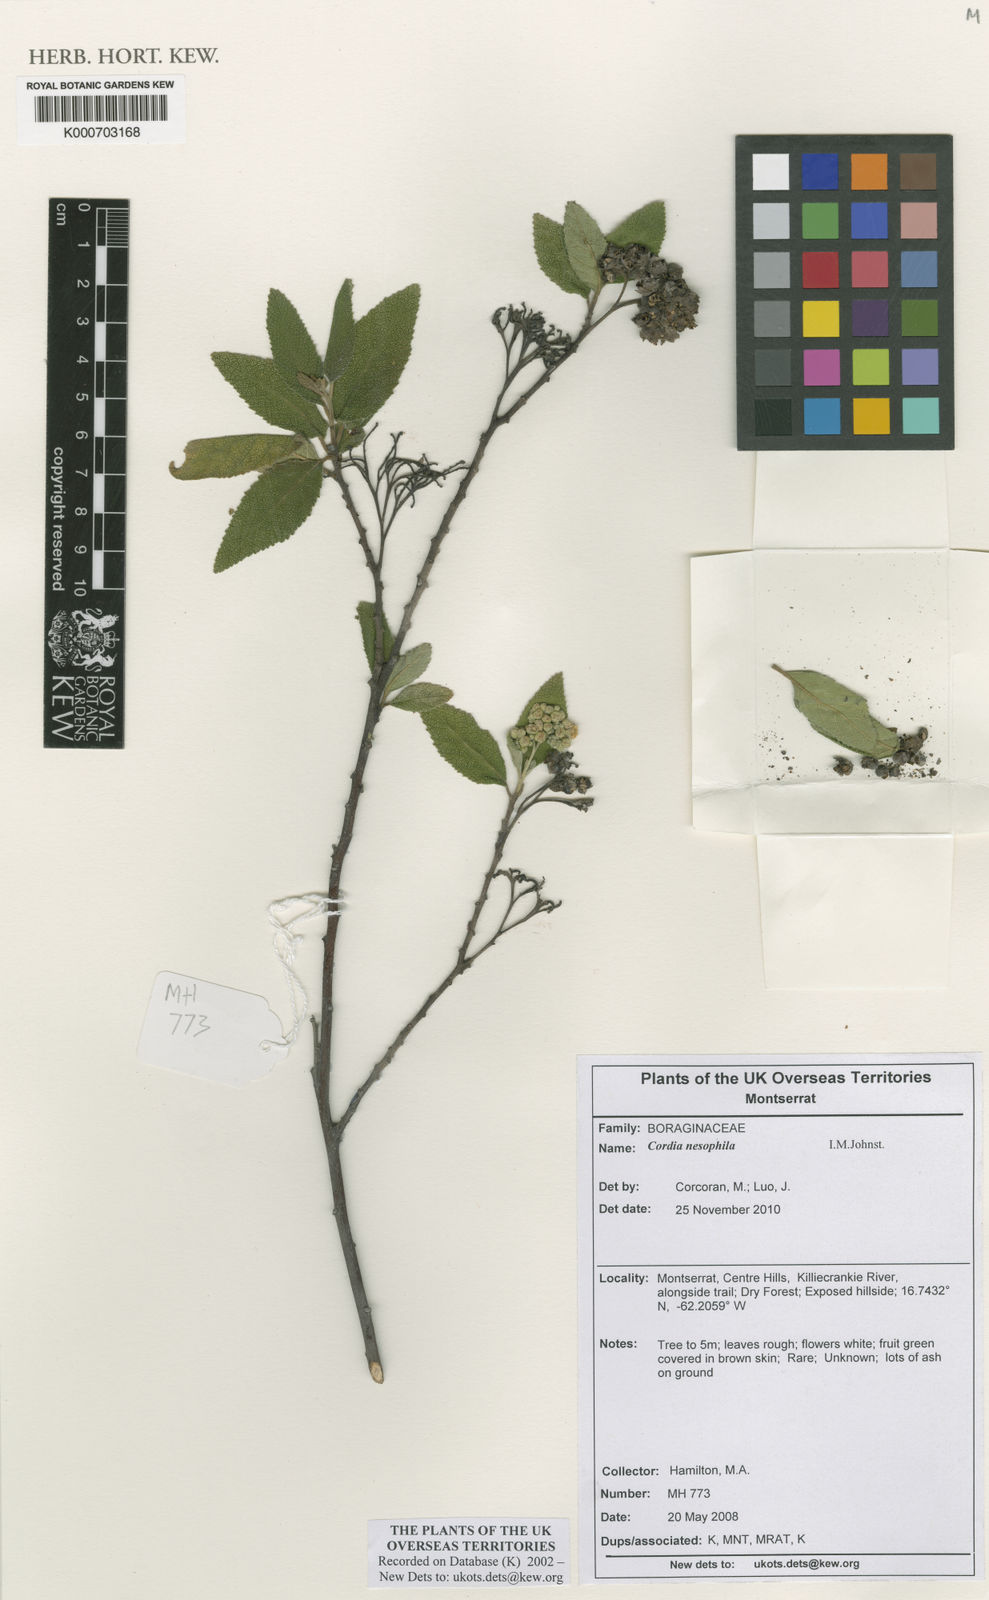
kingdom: Plantae
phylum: Tracheophyta
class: Magnoliopsida
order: Boraginales
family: Cordiaceae
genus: Varronia
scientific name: Varronia nesophila
